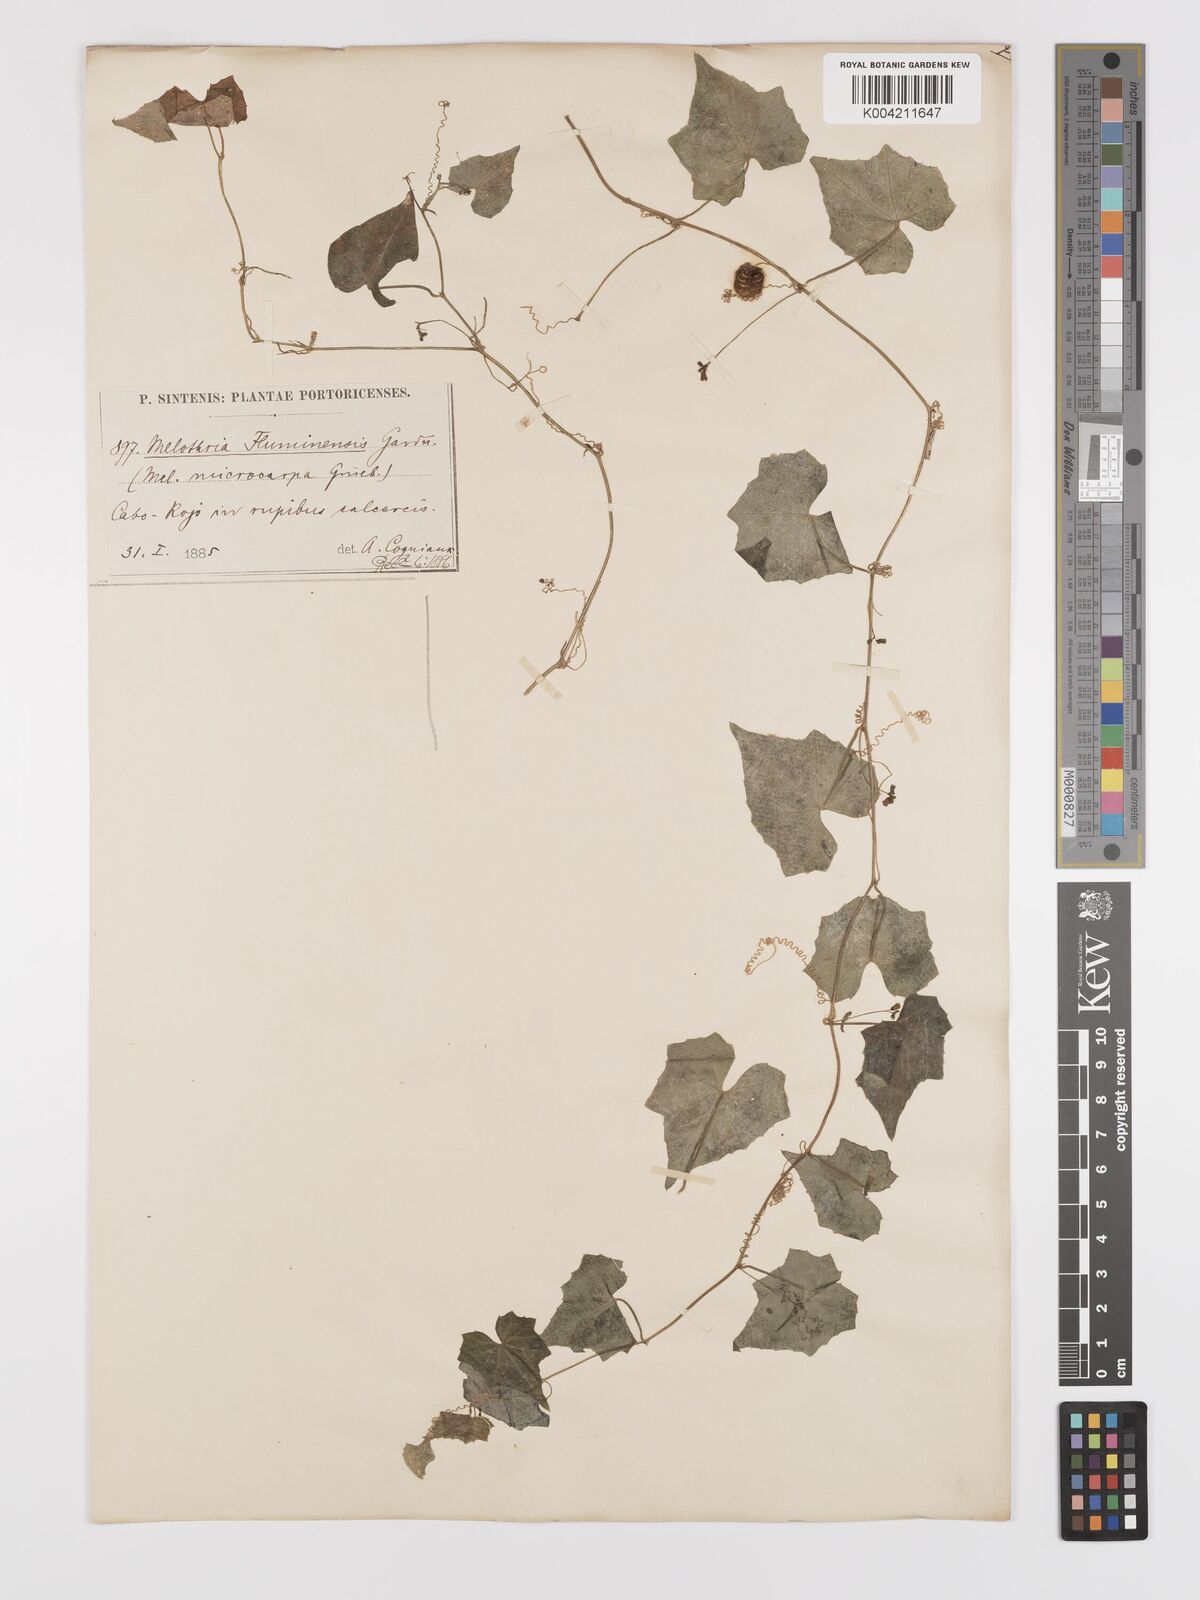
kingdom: Plantae
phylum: Tracheophyta
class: Magnoliopsida
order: Cucurbitales
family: Cucurbitaceae
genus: Melothria
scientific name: Melothria
